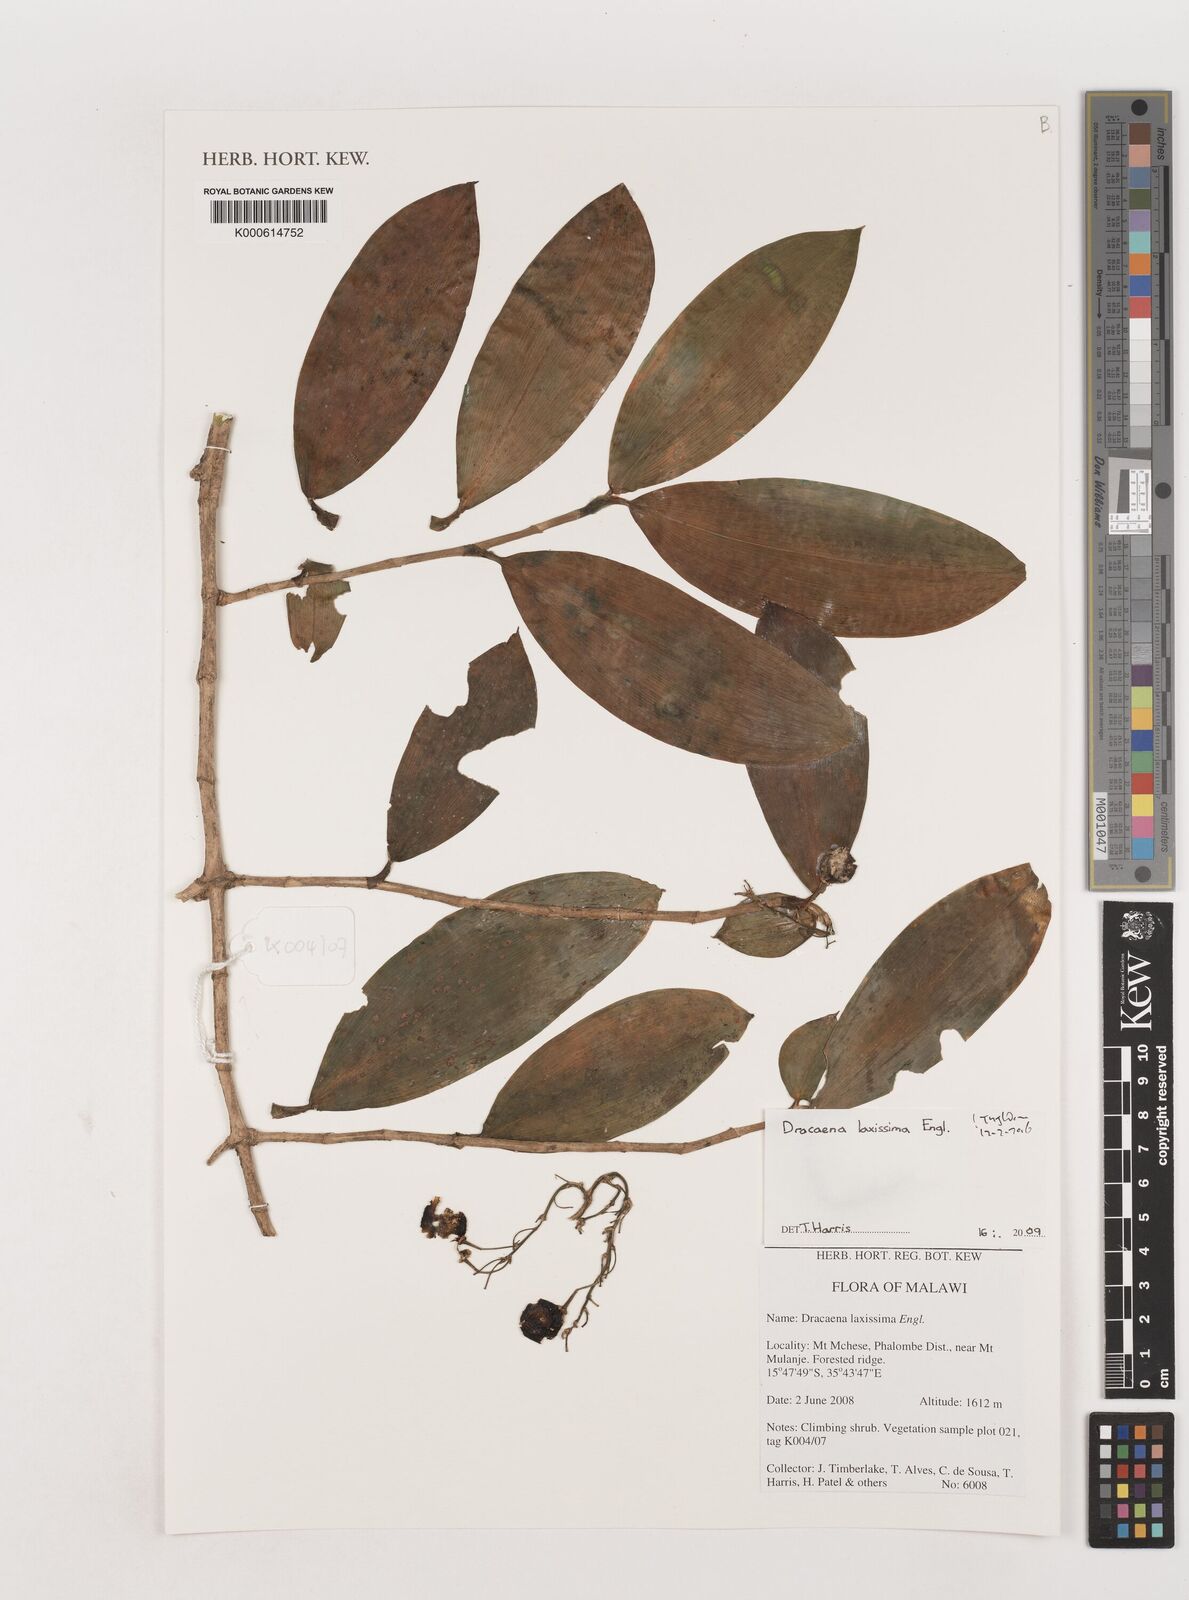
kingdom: Plantae
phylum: Tracheophyta
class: Liliopsida
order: Asparagales
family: Asparagaceae
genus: Dracaena
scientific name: Dracaena laxissima
